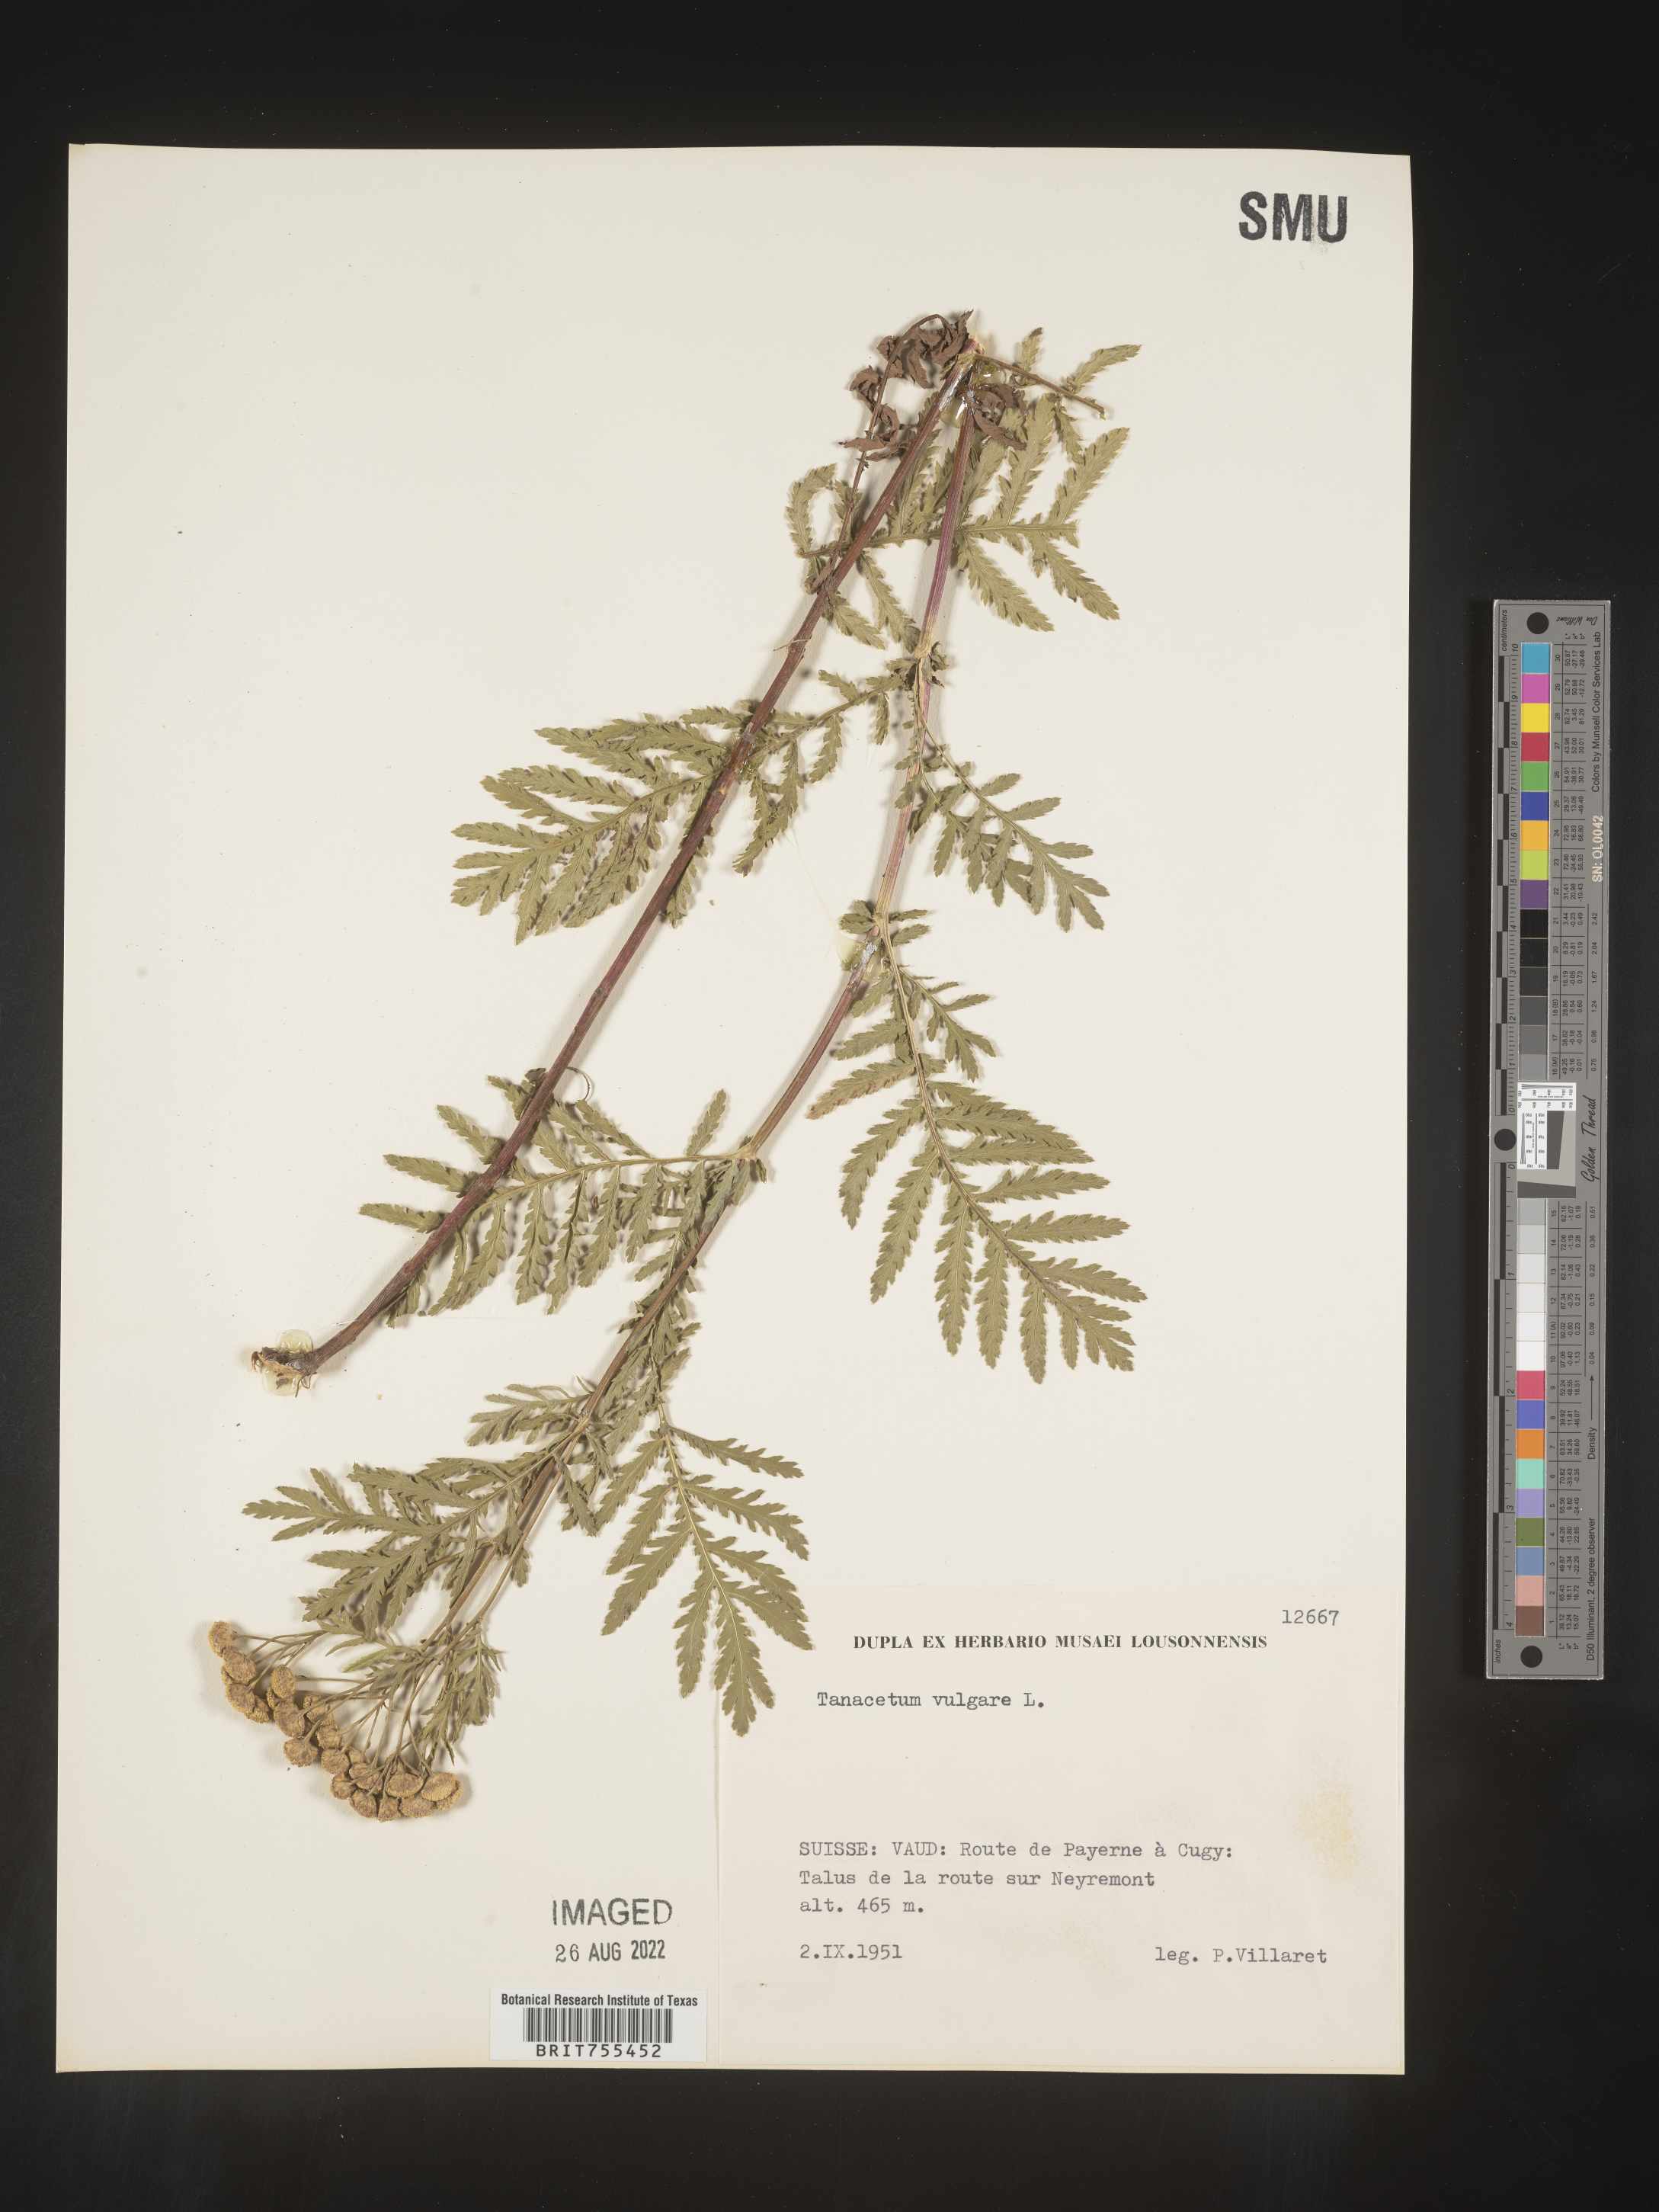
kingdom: Plantae
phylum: Tracheophyta
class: Magnoliopsida
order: Asterales
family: Asteraceae
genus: Tanacetum
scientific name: Tanacetum
